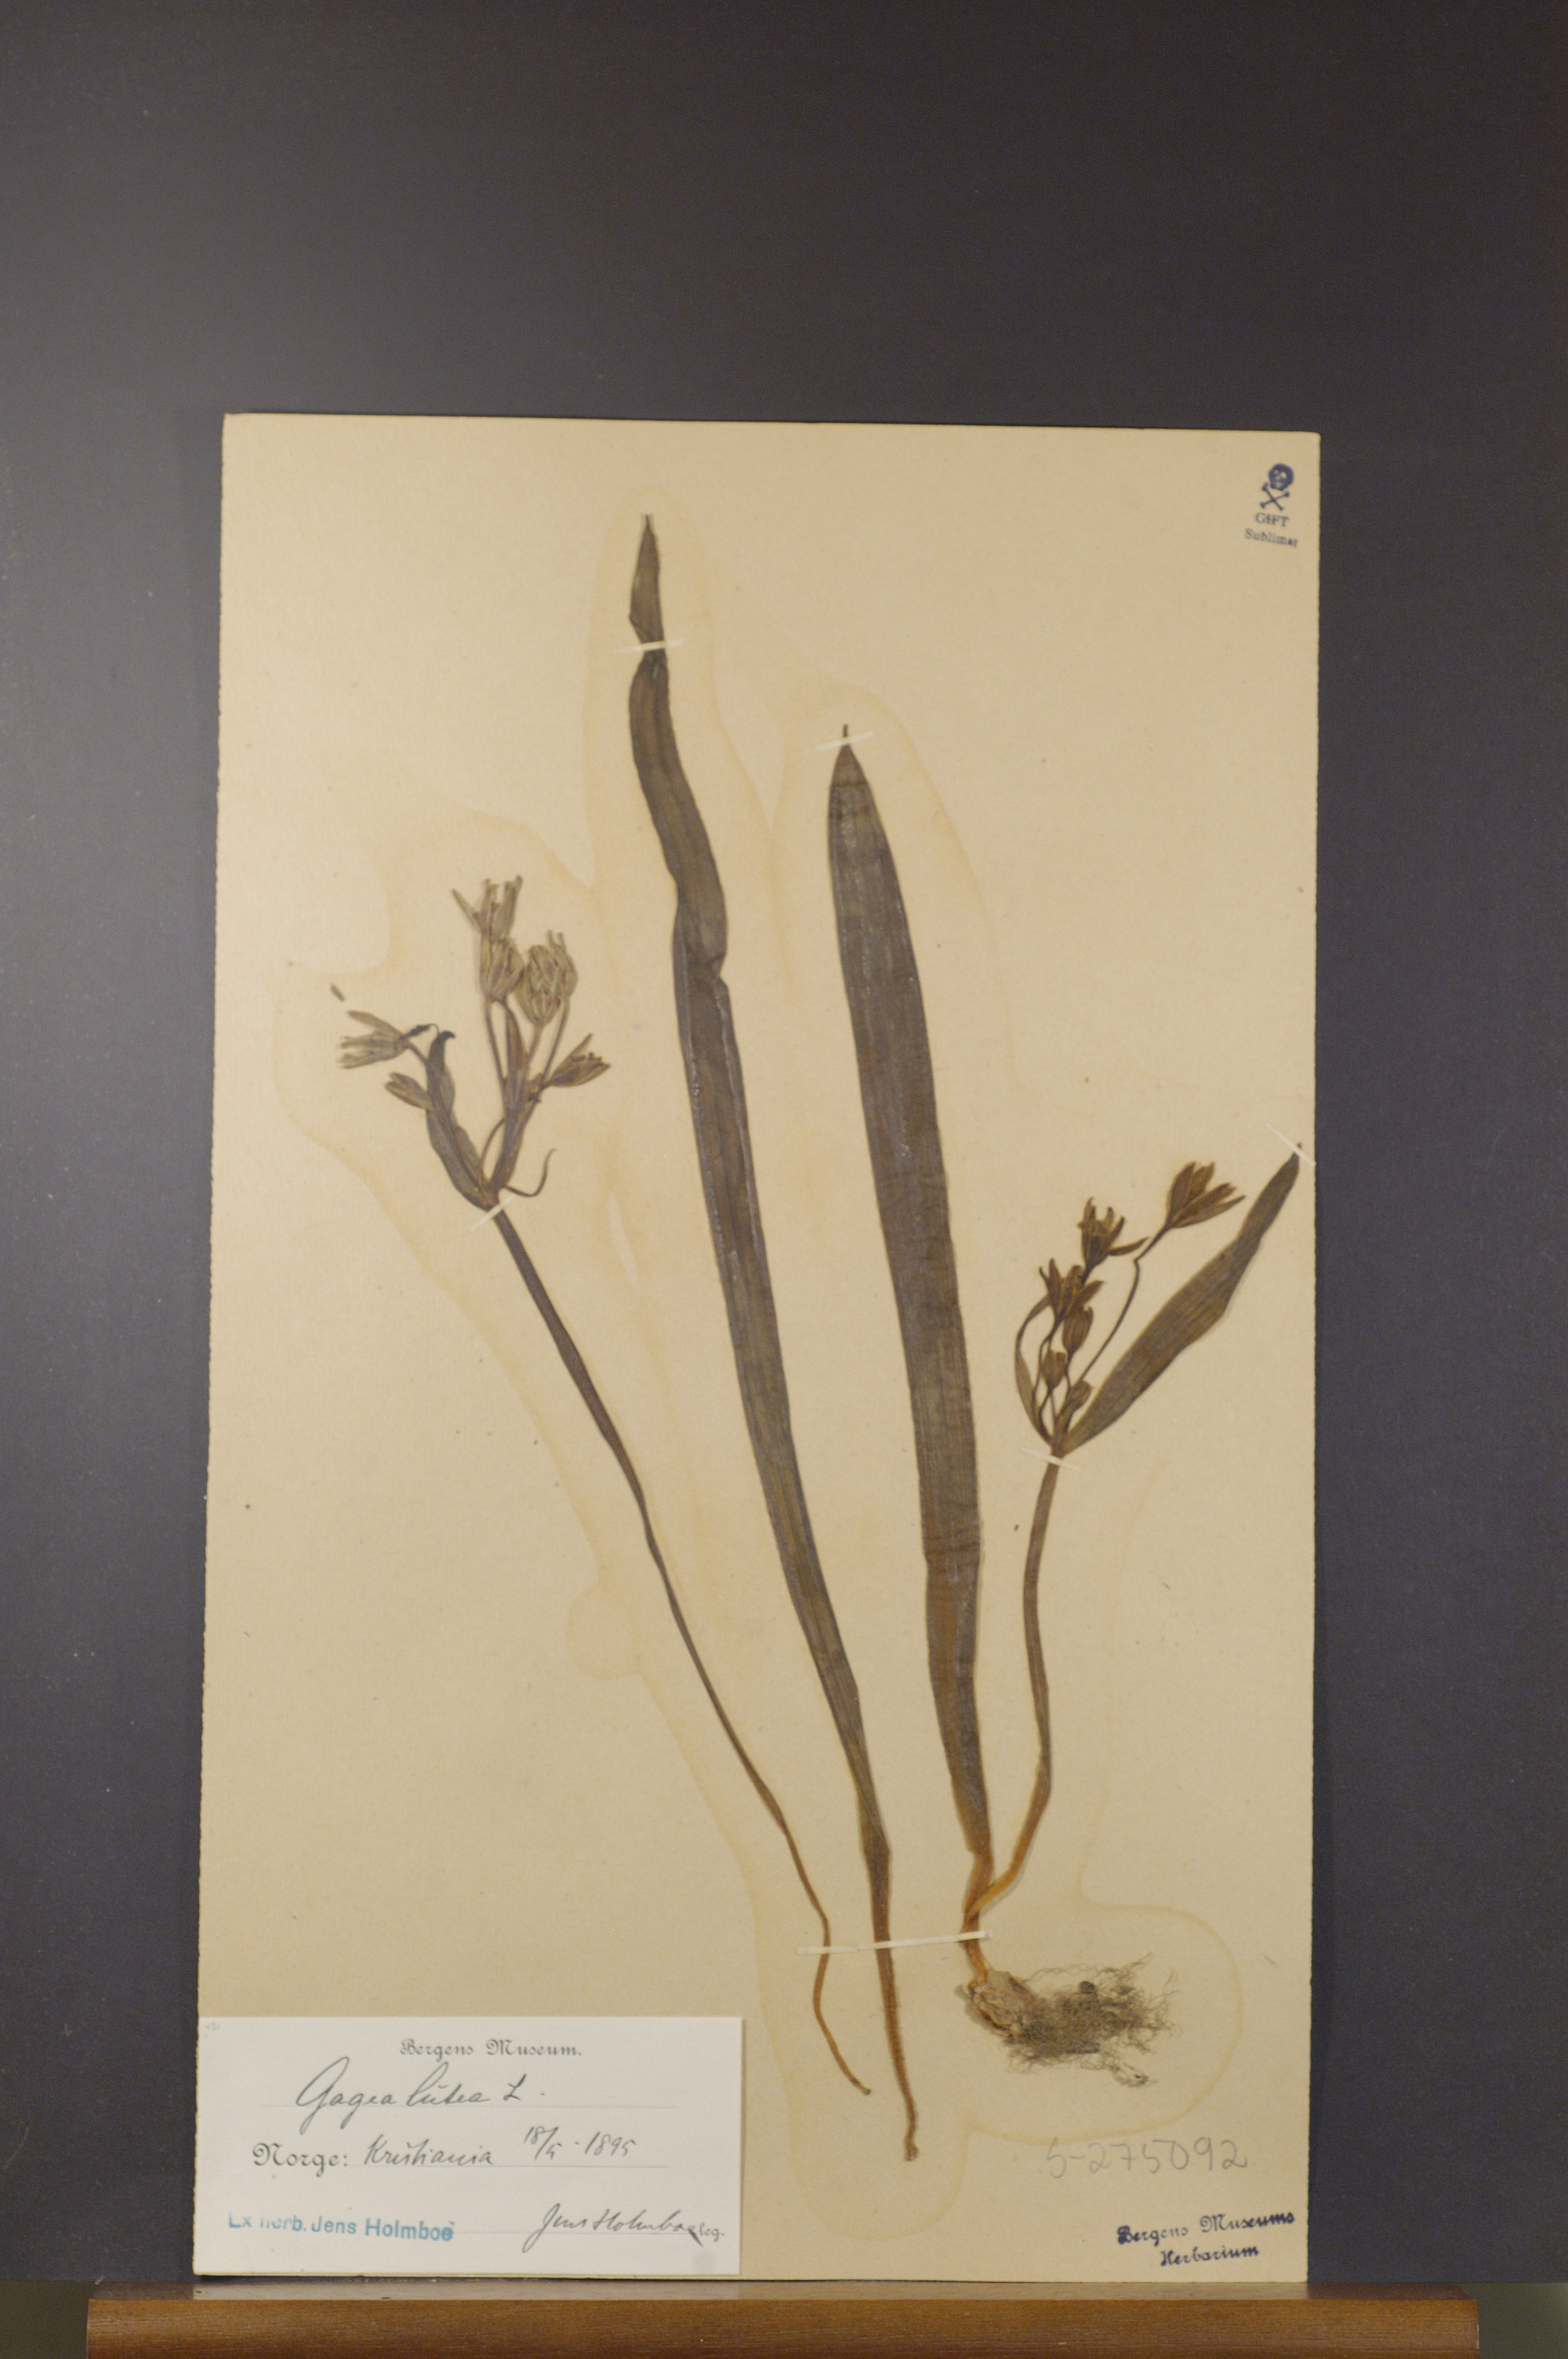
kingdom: Plantae
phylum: Tracheophyta
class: Liliopsida
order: Liliales
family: Liliaceae
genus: Gagea
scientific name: Gagea lutea
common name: Yellow star-of-bethlehem
